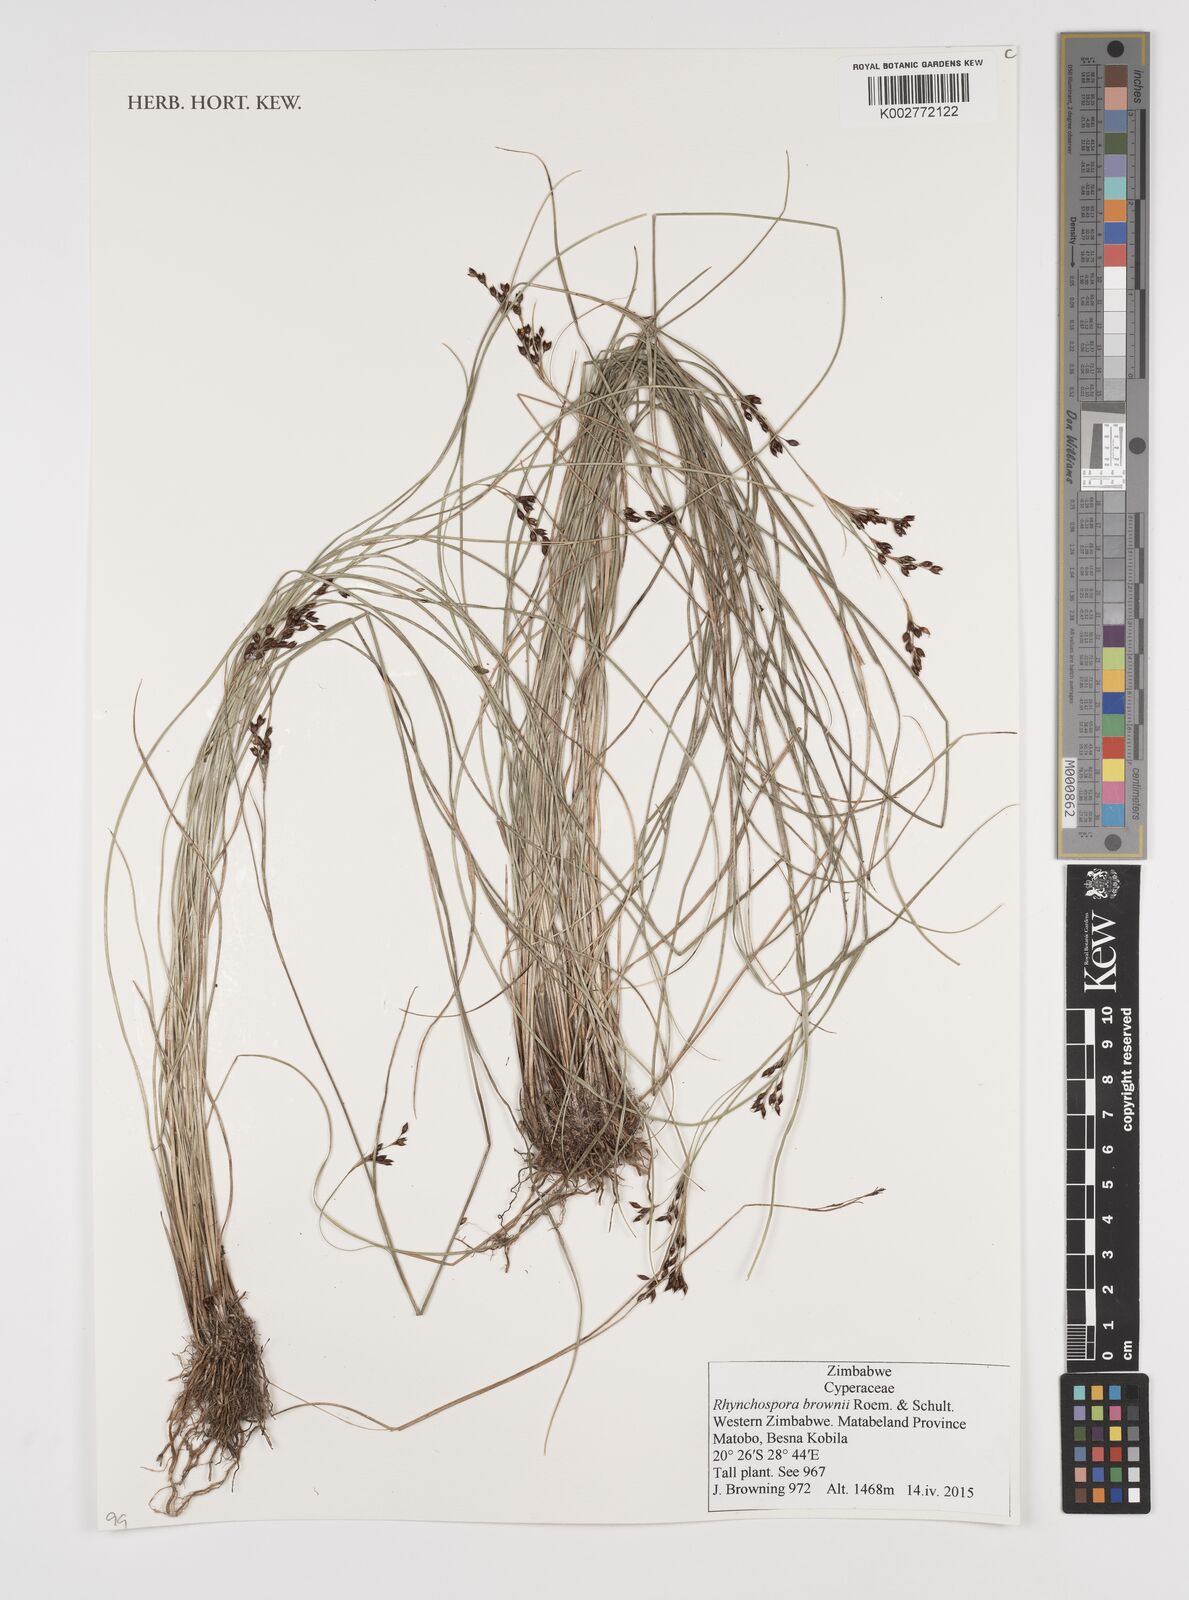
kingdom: Plantae
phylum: Tracheophyta
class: Liliopsida
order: Poales
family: Cyperaceae
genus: Rhynchospora
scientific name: Rhynchospora brownii
